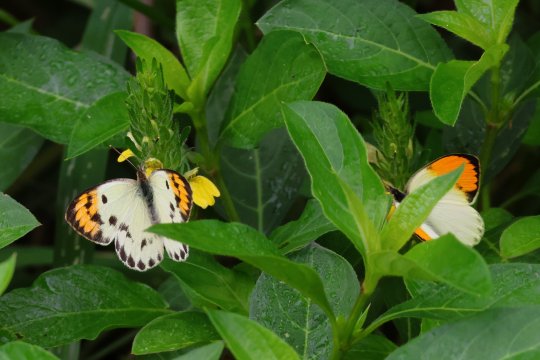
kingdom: Animalia
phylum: Arthropoda
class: Insecta
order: Lepidoptera
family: Pieridae
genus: Colotis
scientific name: Colotis auxo
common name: Sulphur Orange Tip
